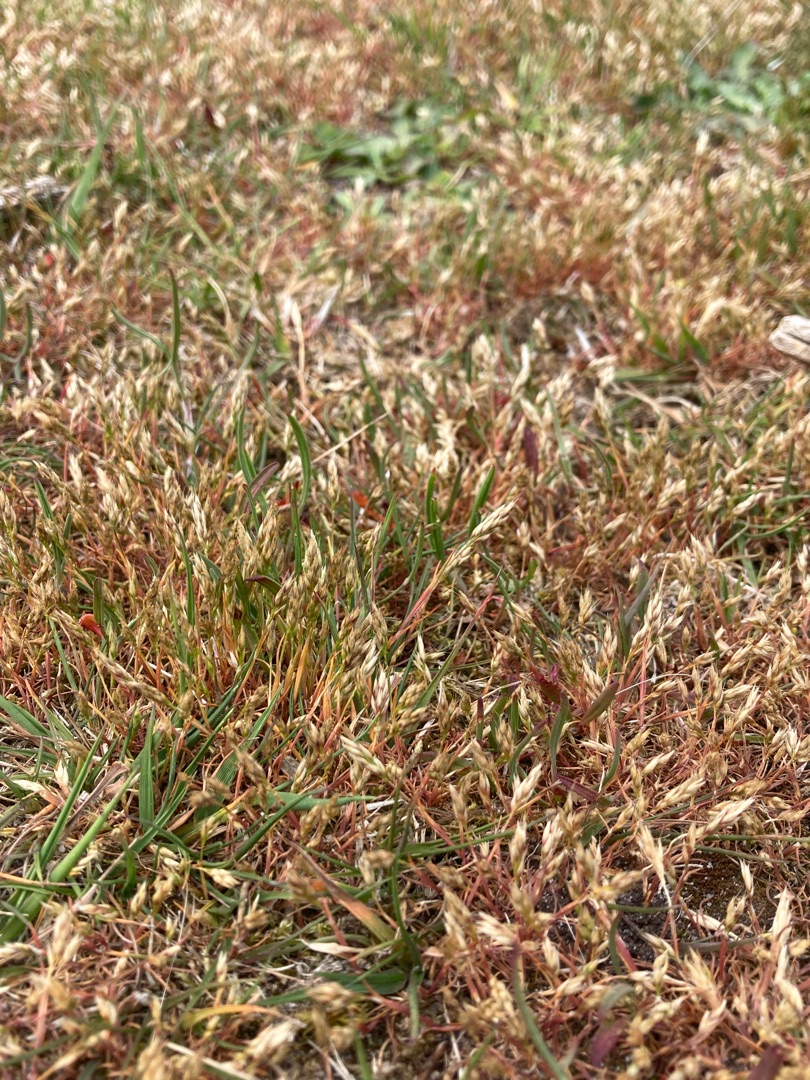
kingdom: Plantae
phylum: Tracheophyta
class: Liliopsida
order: Poales
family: Poaceae
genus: Aira
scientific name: Aira praecox
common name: Tidlig dværgbunke
